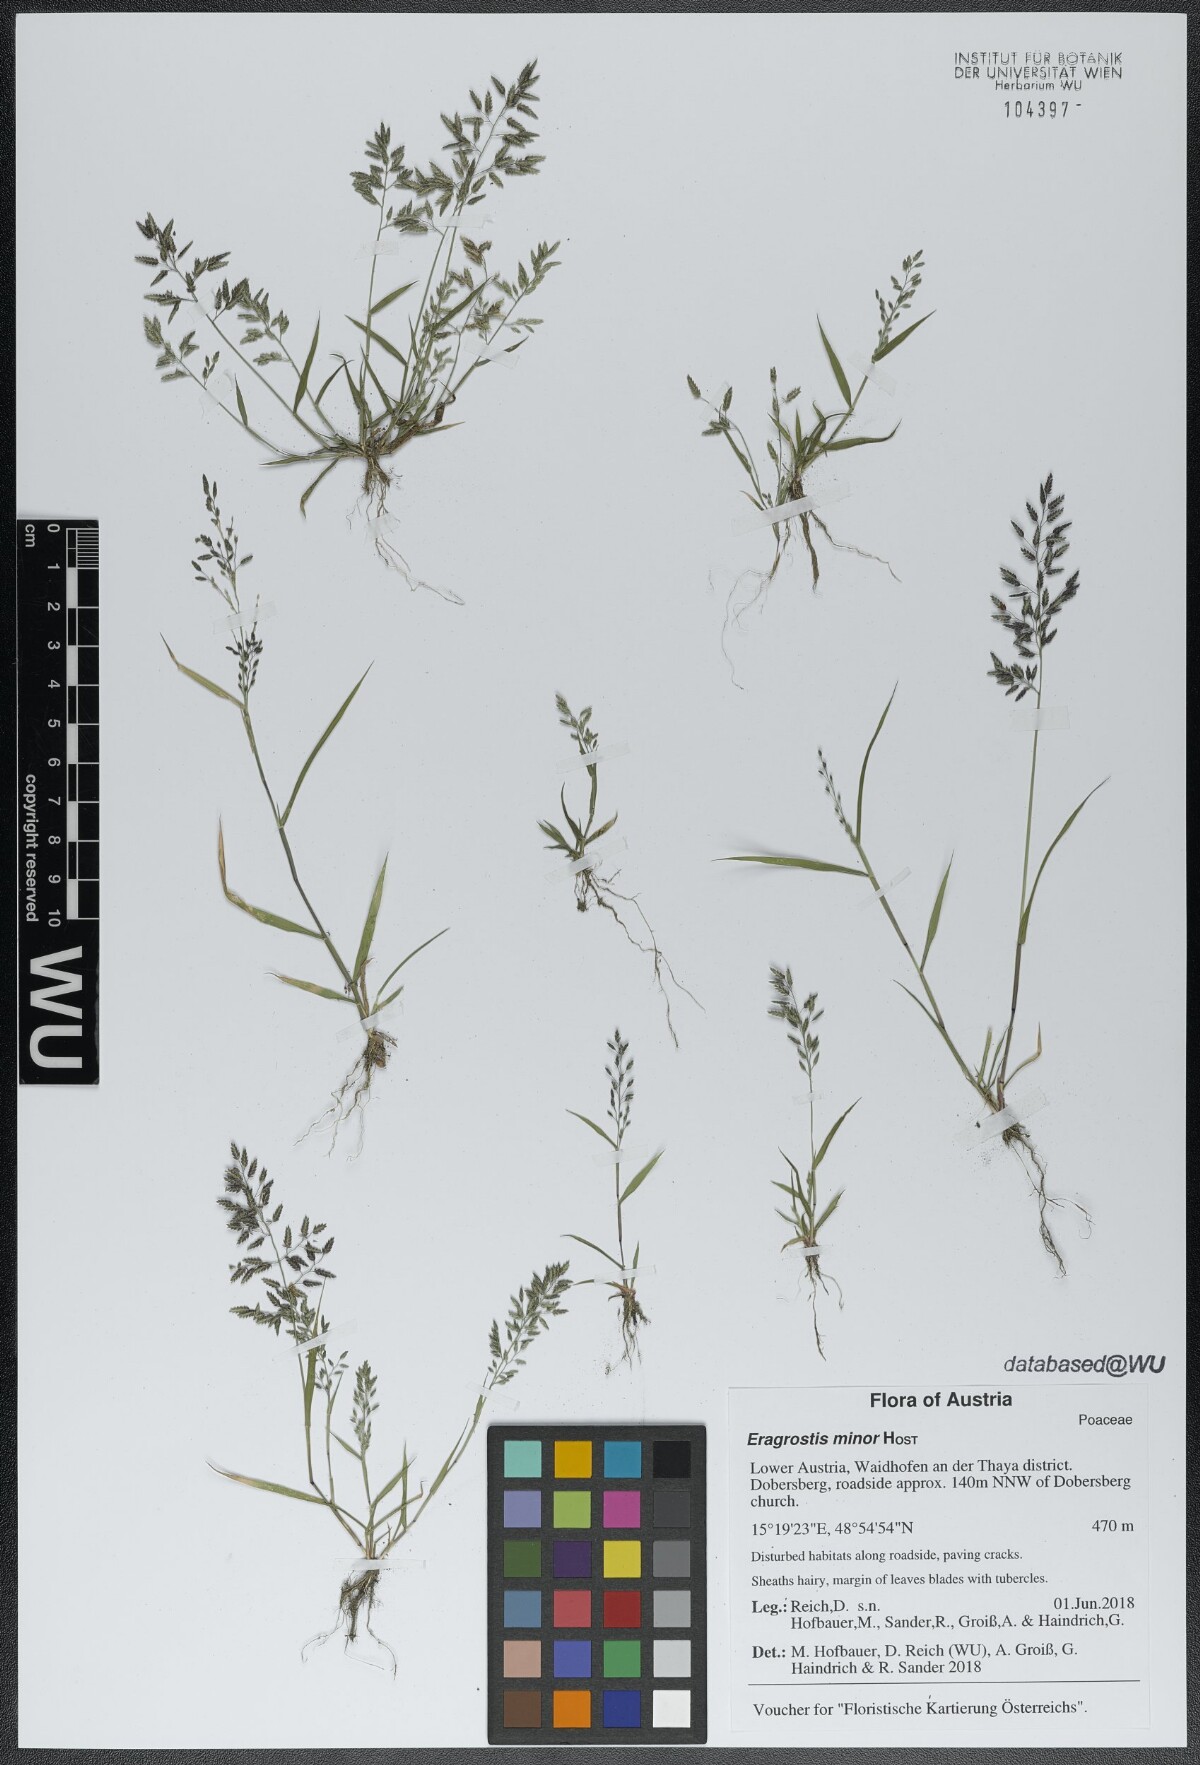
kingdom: Plantae
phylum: Tracheophyta
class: Liliopsida
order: Poales
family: Poaceae
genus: Eragrostis
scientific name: Eragrostis minor
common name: Small love-grass
